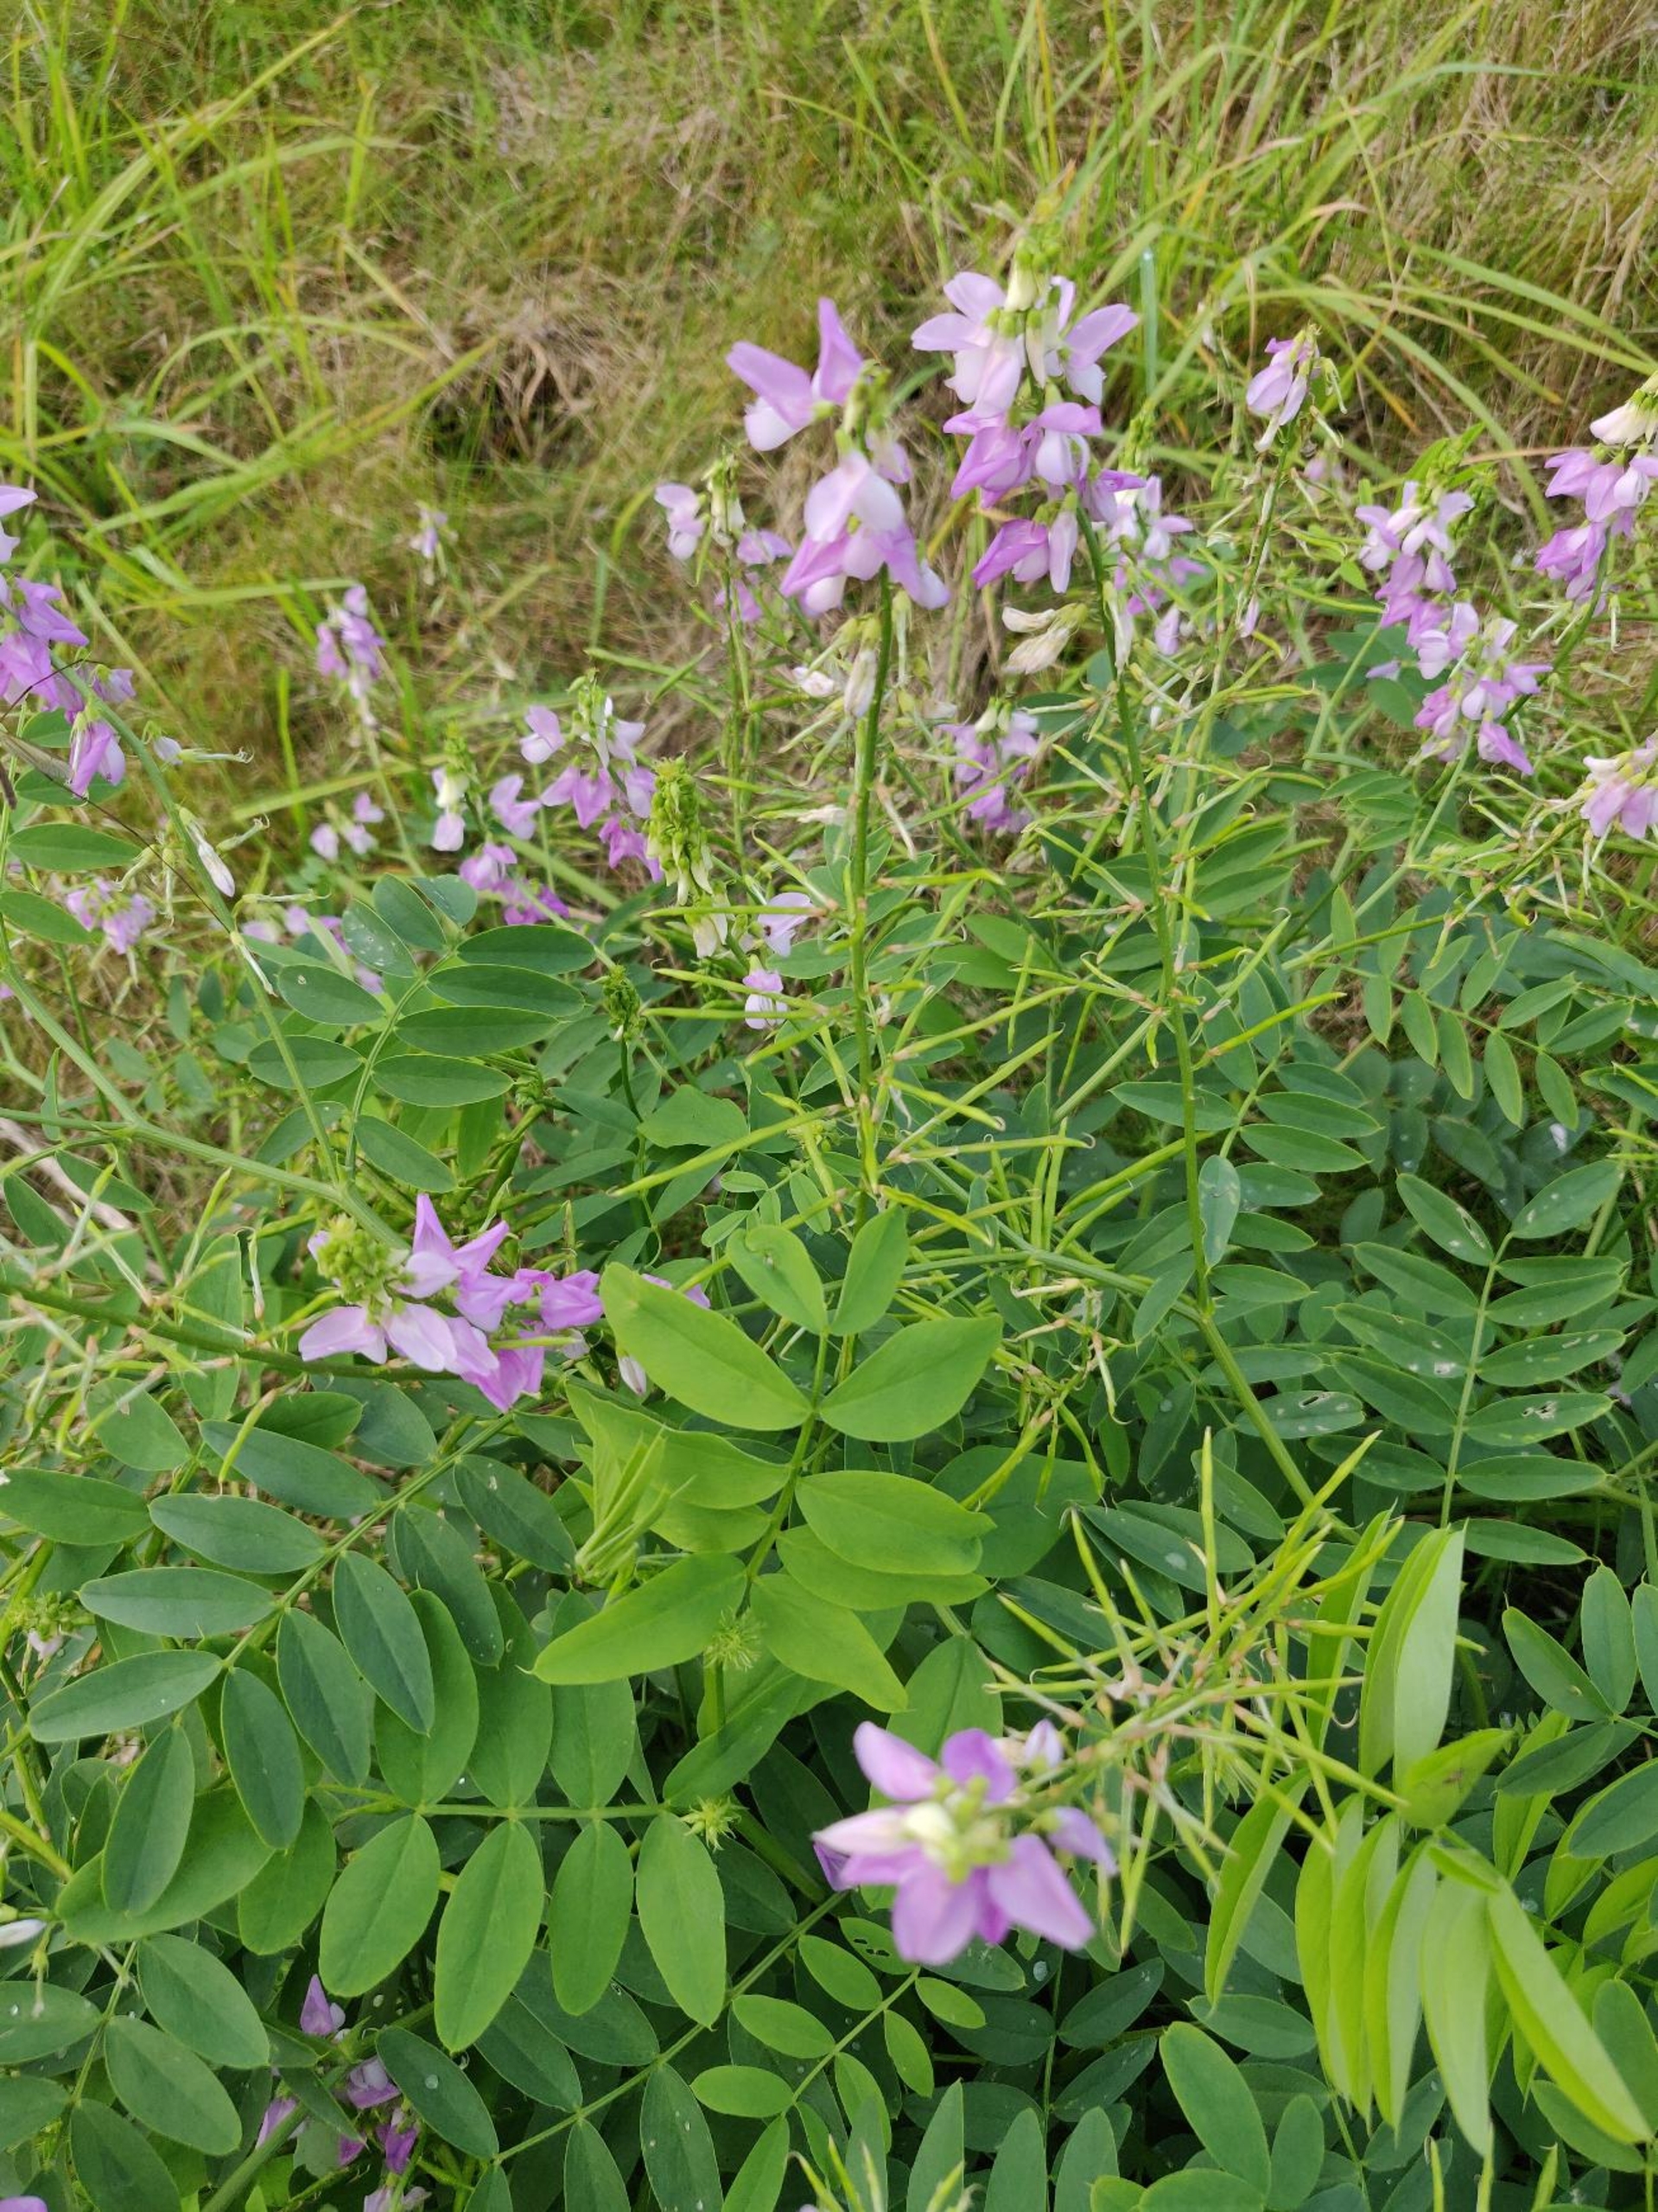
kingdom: Plantae
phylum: Tracheophyta
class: Magnoliopsida
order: Fabales
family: Fabaceae
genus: Galega
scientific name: Galega officinalis
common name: Læge-stregbælg
